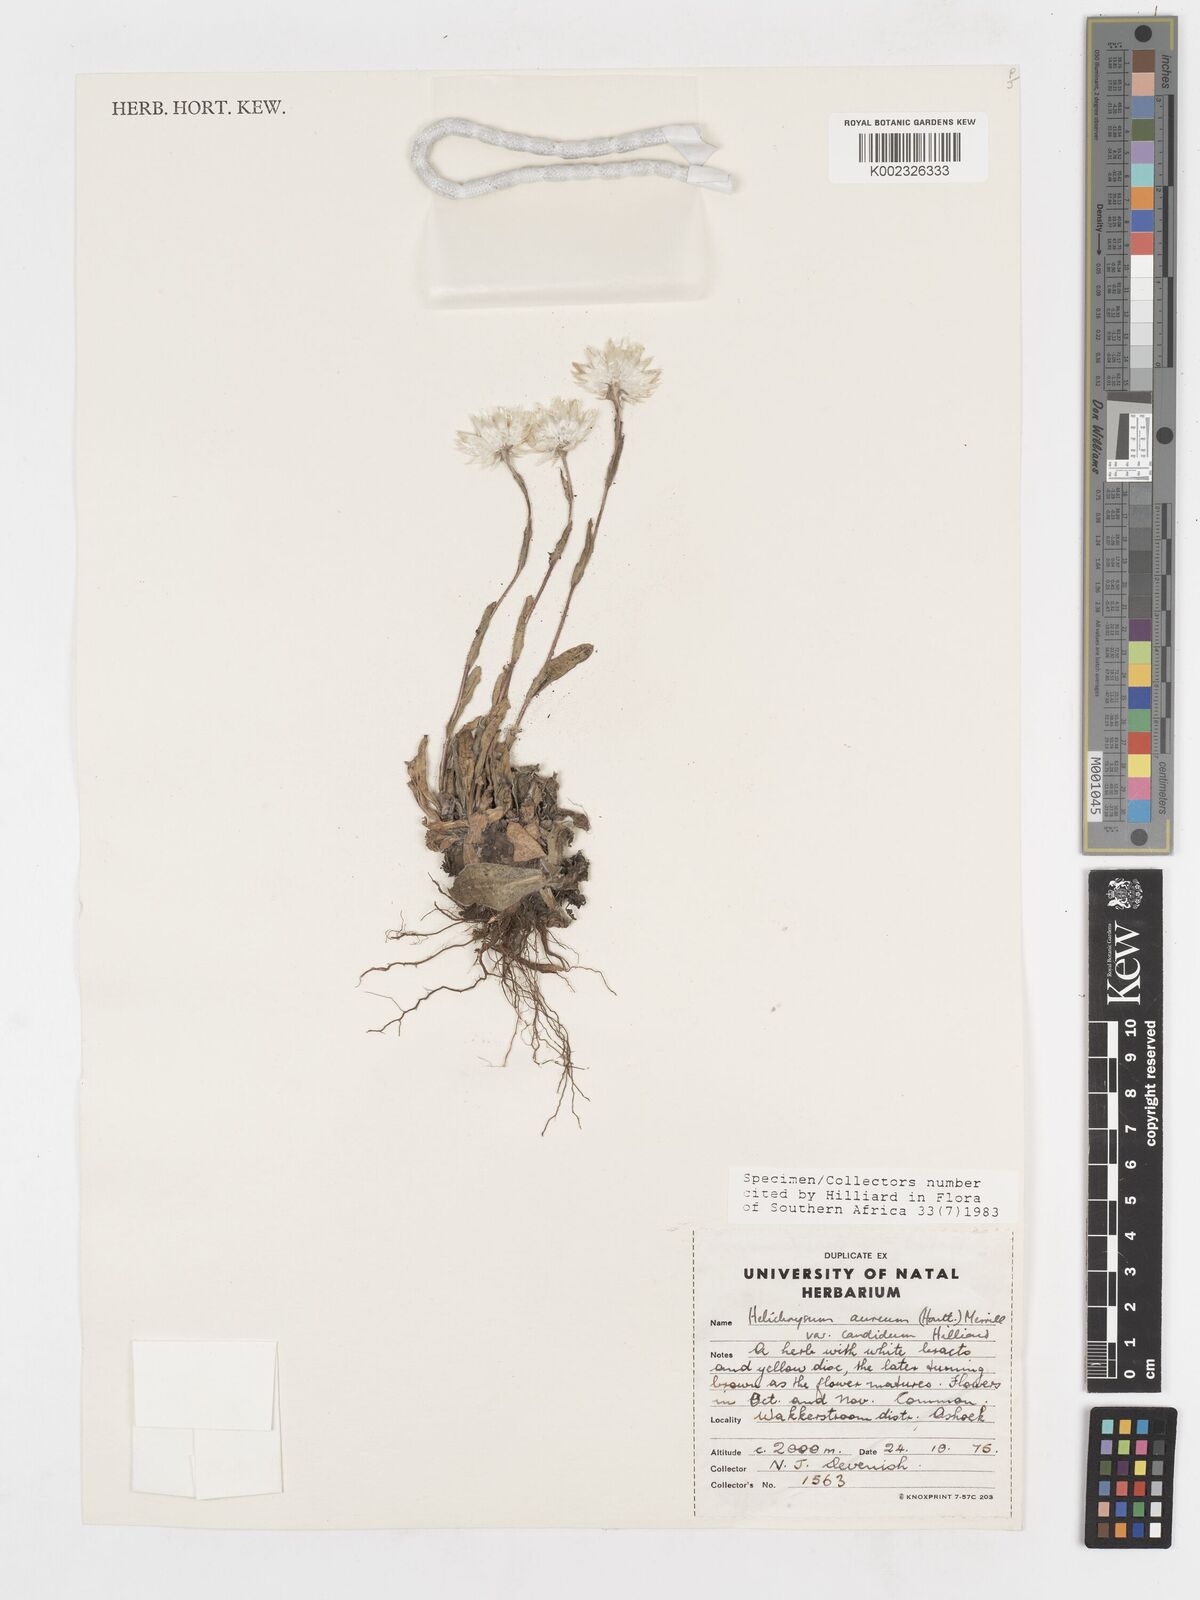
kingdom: Plantae
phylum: Tracheophyta
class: Magnoliopsida
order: Asterales
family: Asteraceae
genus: Helichrysum
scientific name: Helichrysum aureum
